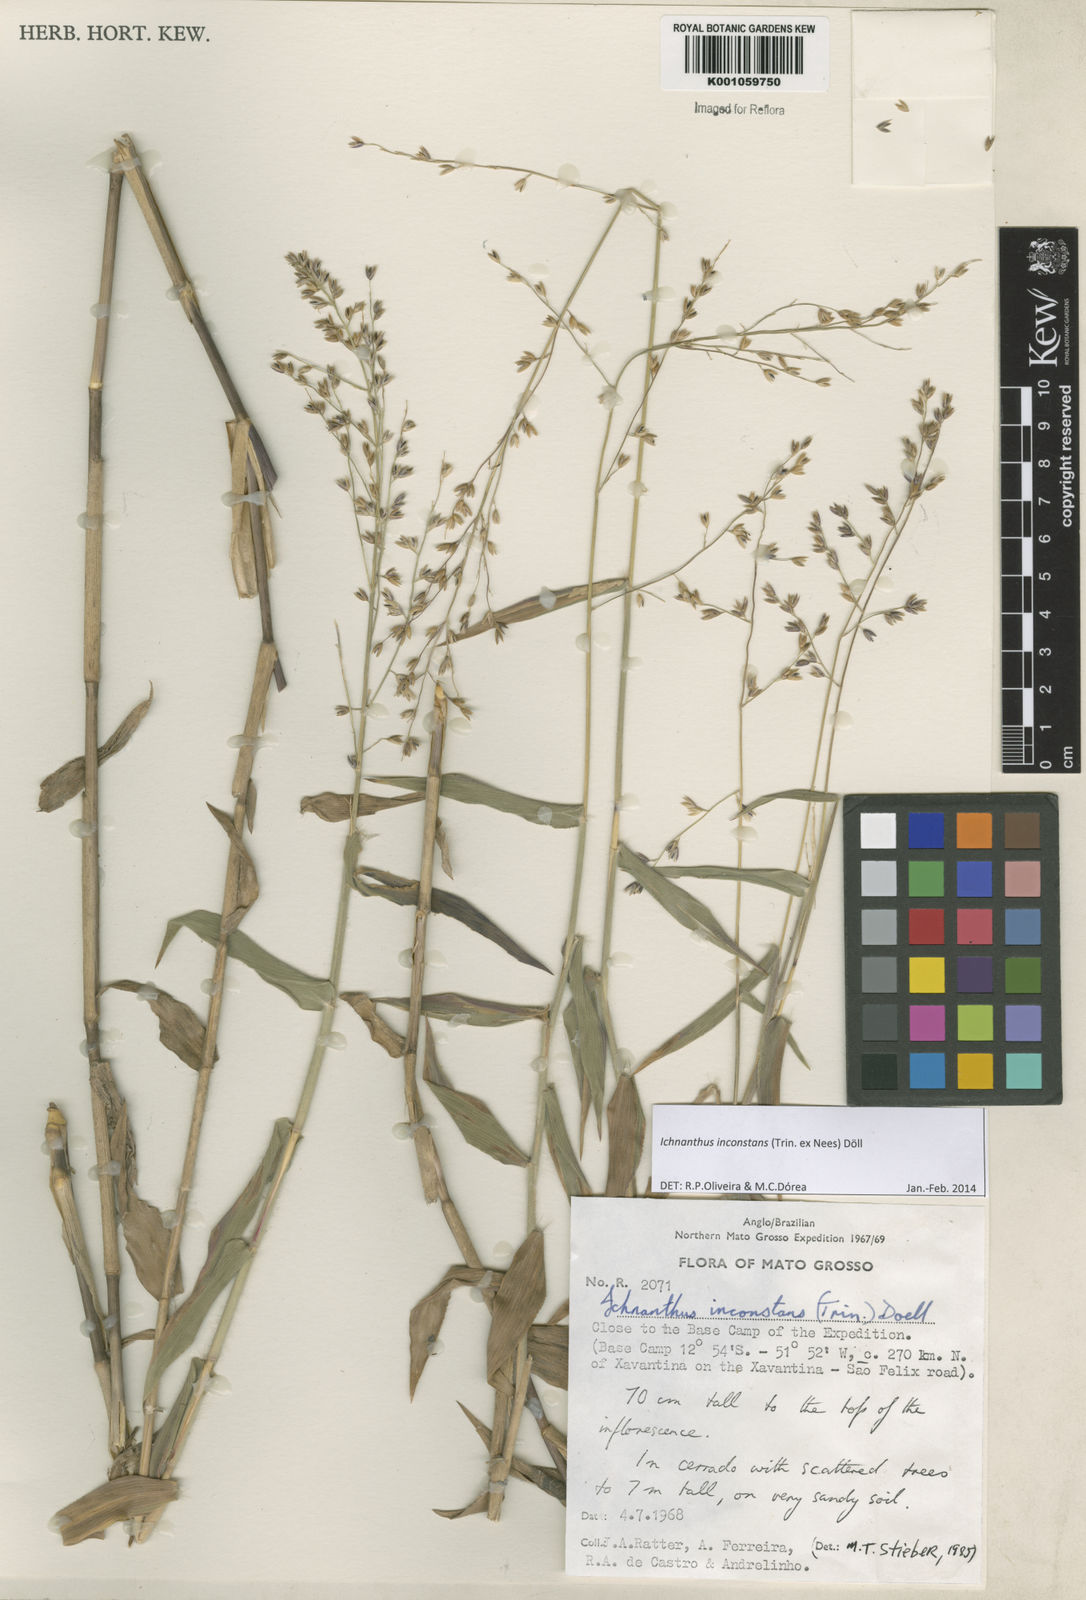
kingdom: Plantae
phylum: Tracheophyta
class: Liliopsida
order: Poales
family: Poaceae
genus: Ichnanthus
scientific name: Ichnanthus
